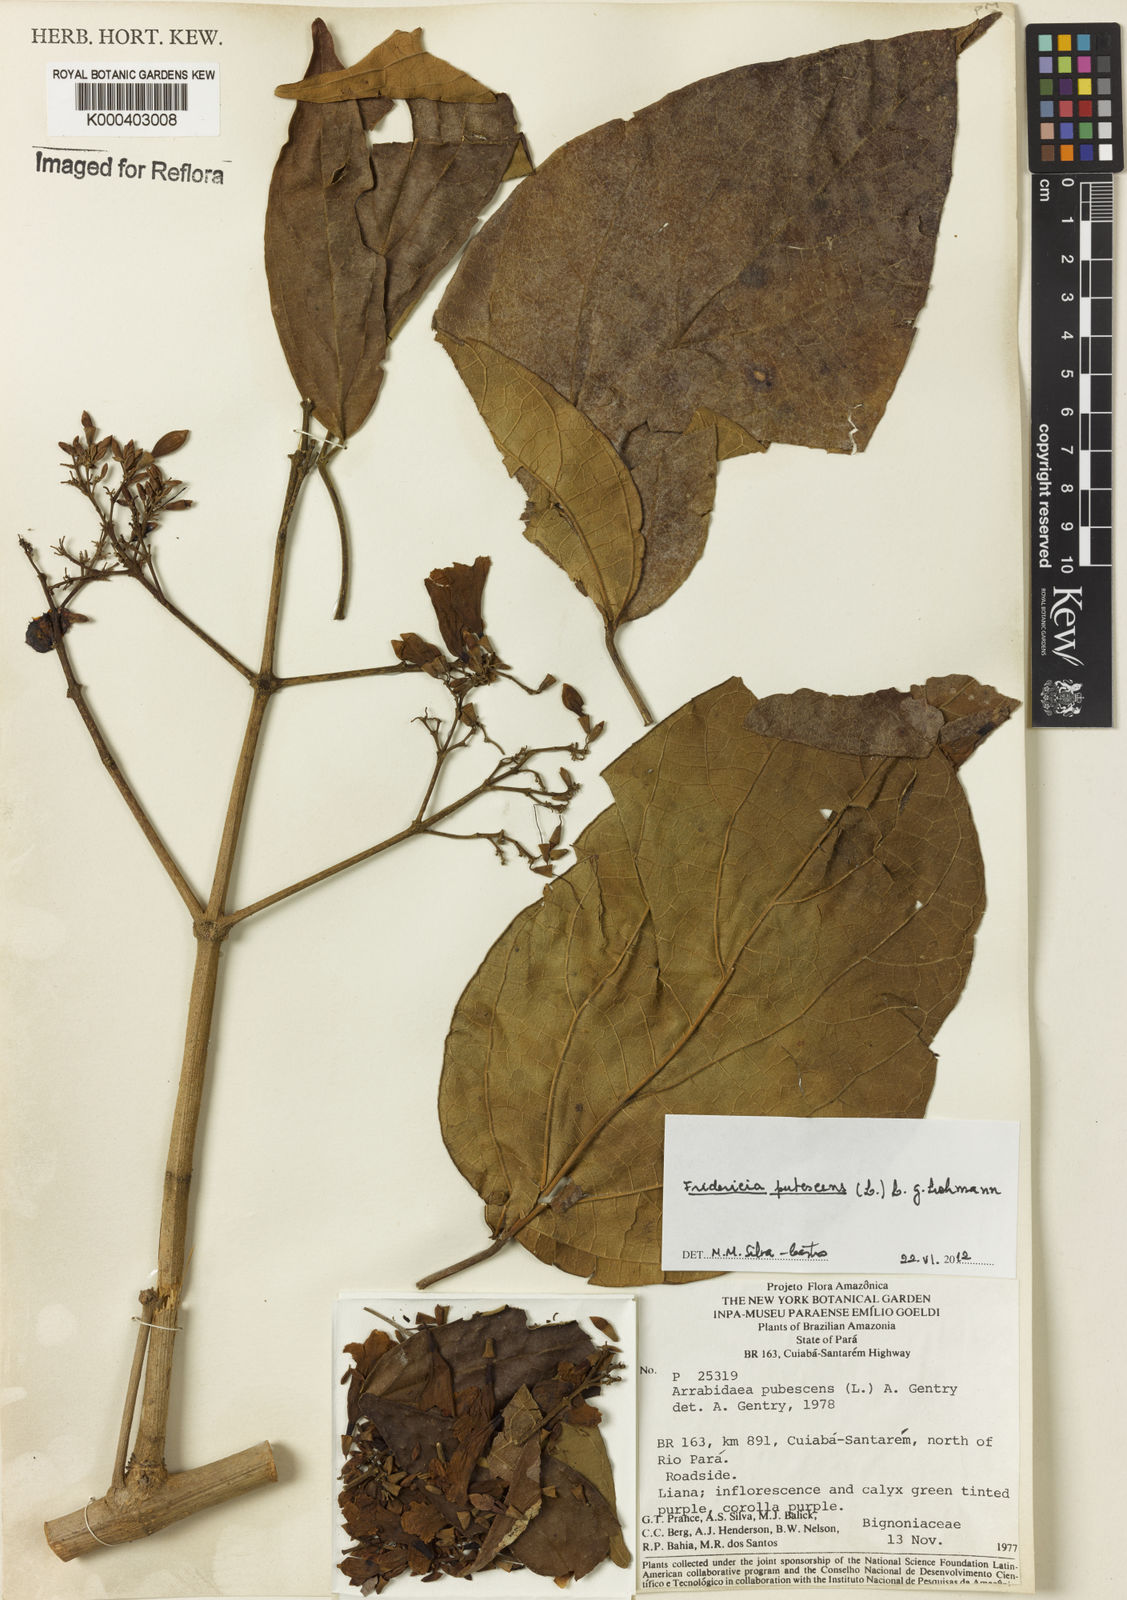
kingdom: Plantae
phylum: Tracheophyta
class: Magnoliopsida
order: Lamiales
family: Bignoniaceae
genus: Fridericia
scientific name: Fridericia pubescens
